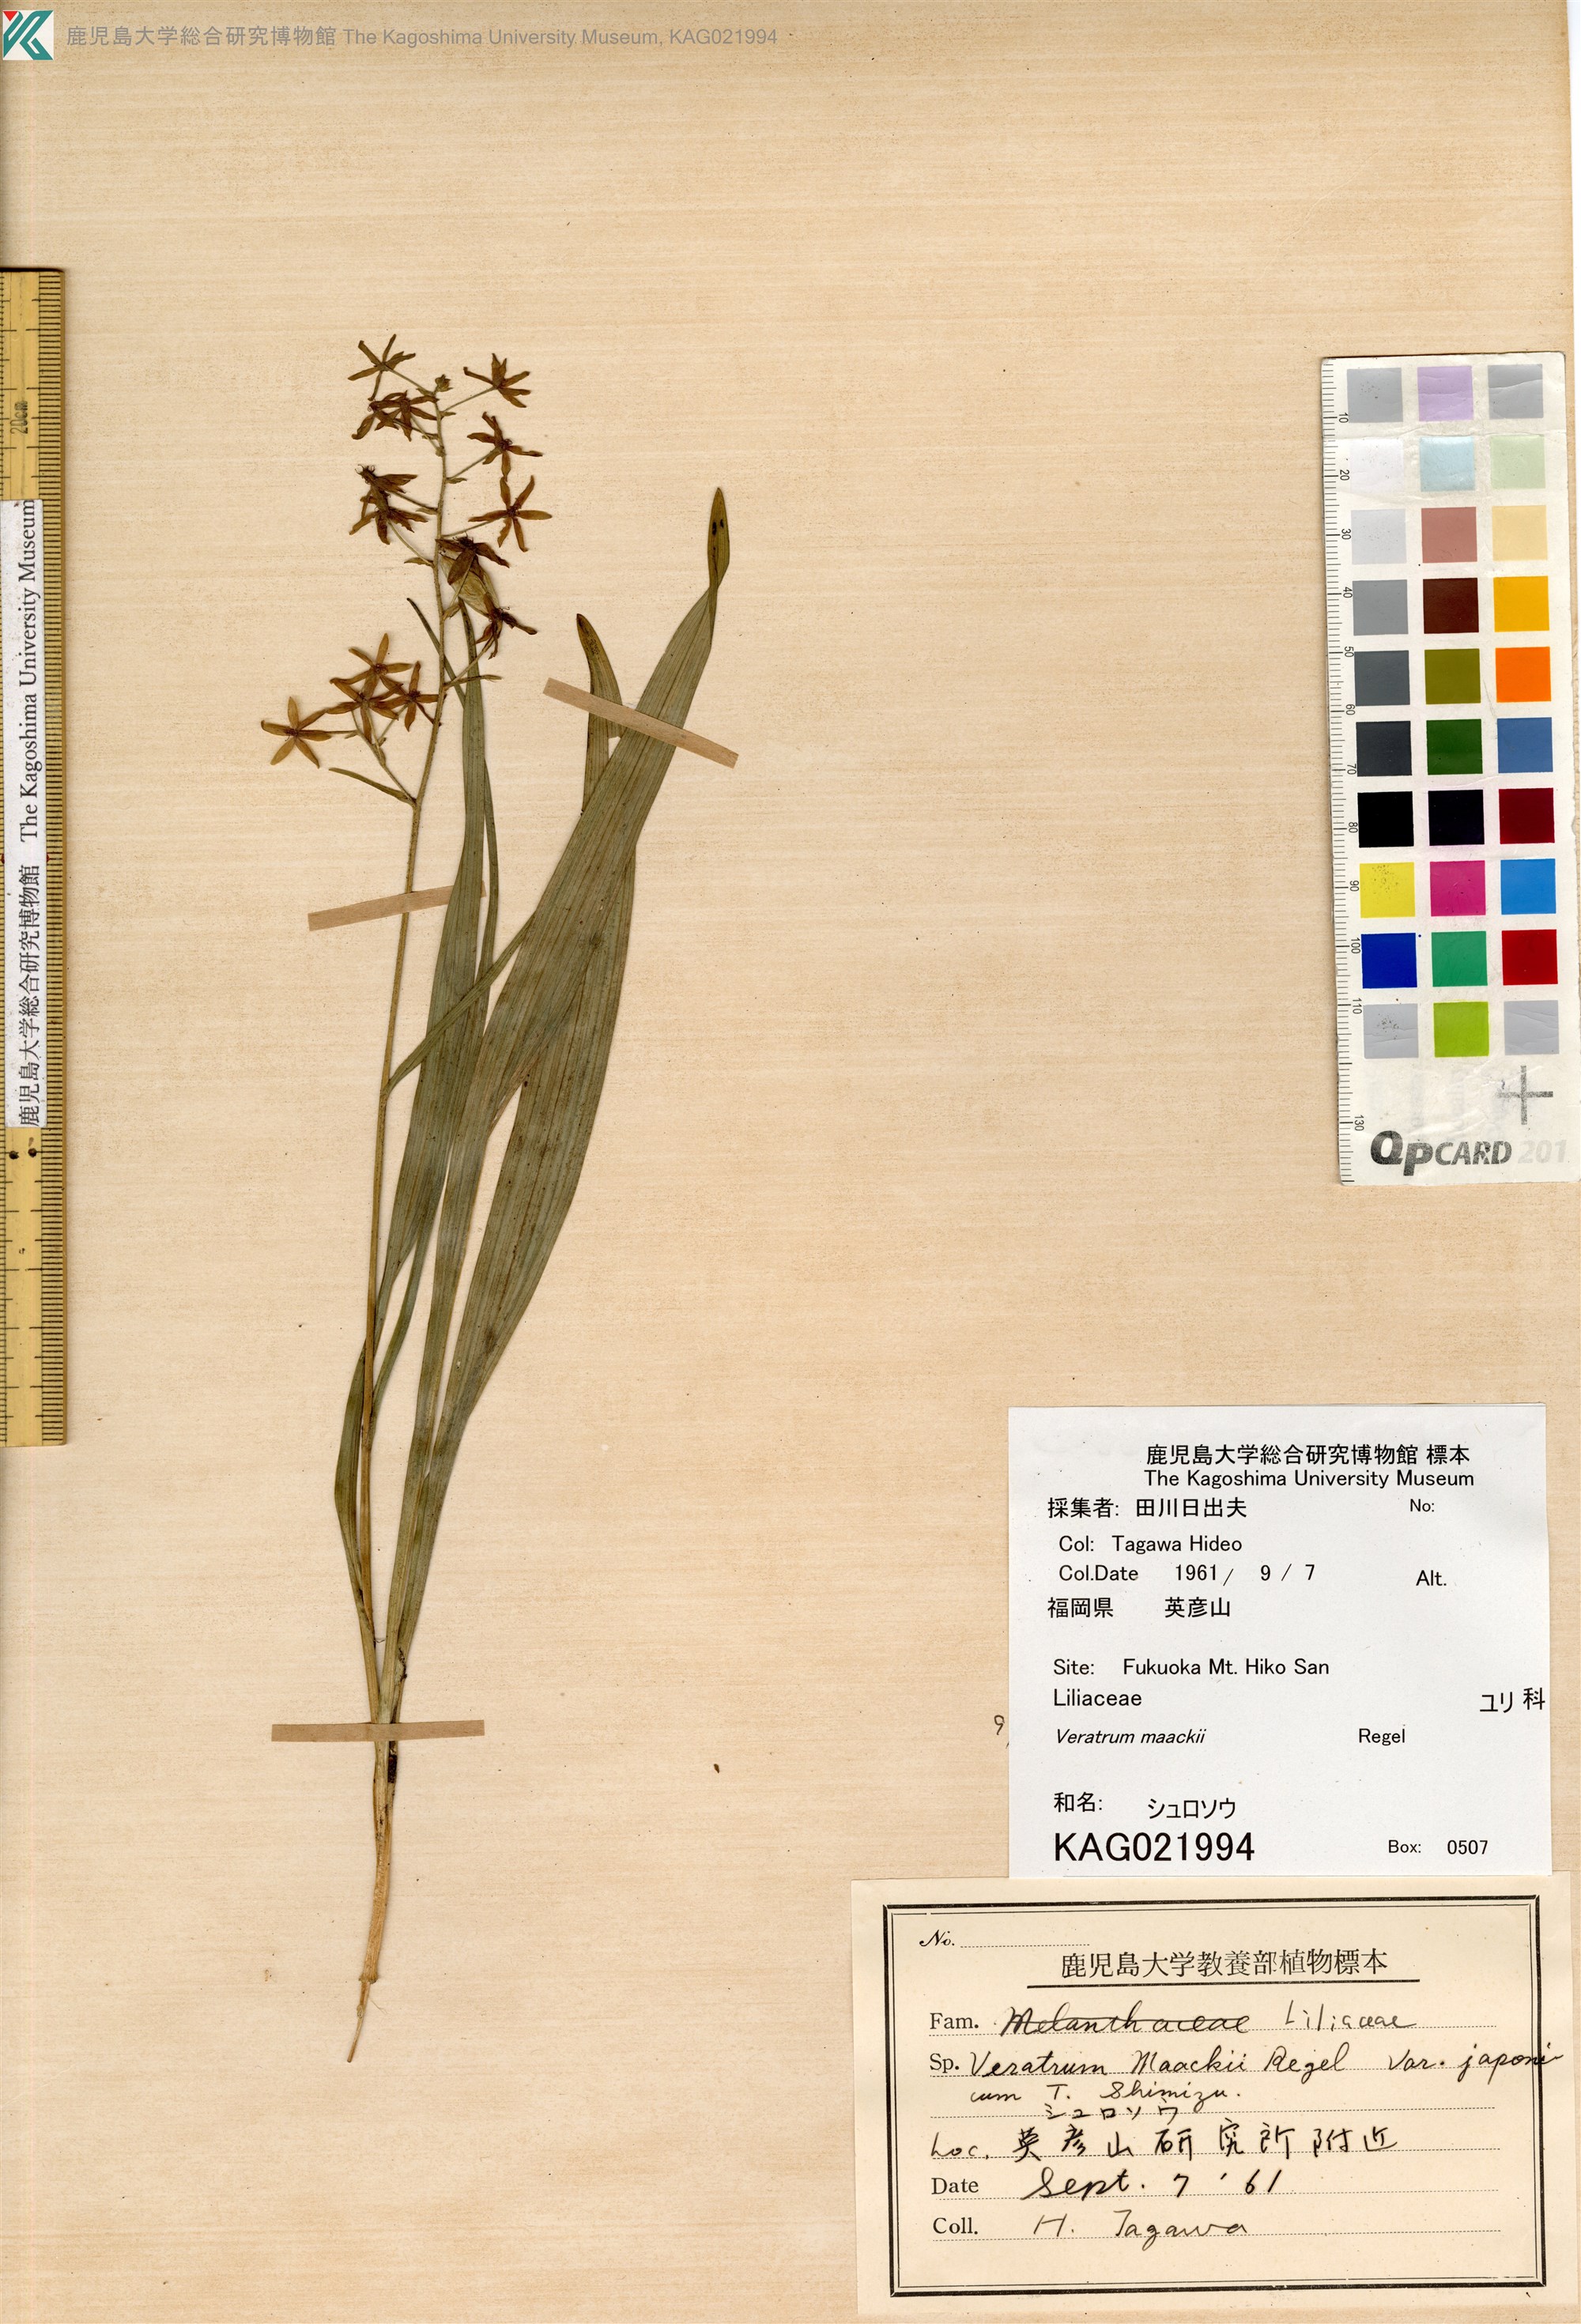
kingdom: Plantae
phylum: Tracheophyta
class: Liliopsida
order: Liliales
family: Melanthiaceae
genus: Veratrum
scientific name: Veratrum maackii
